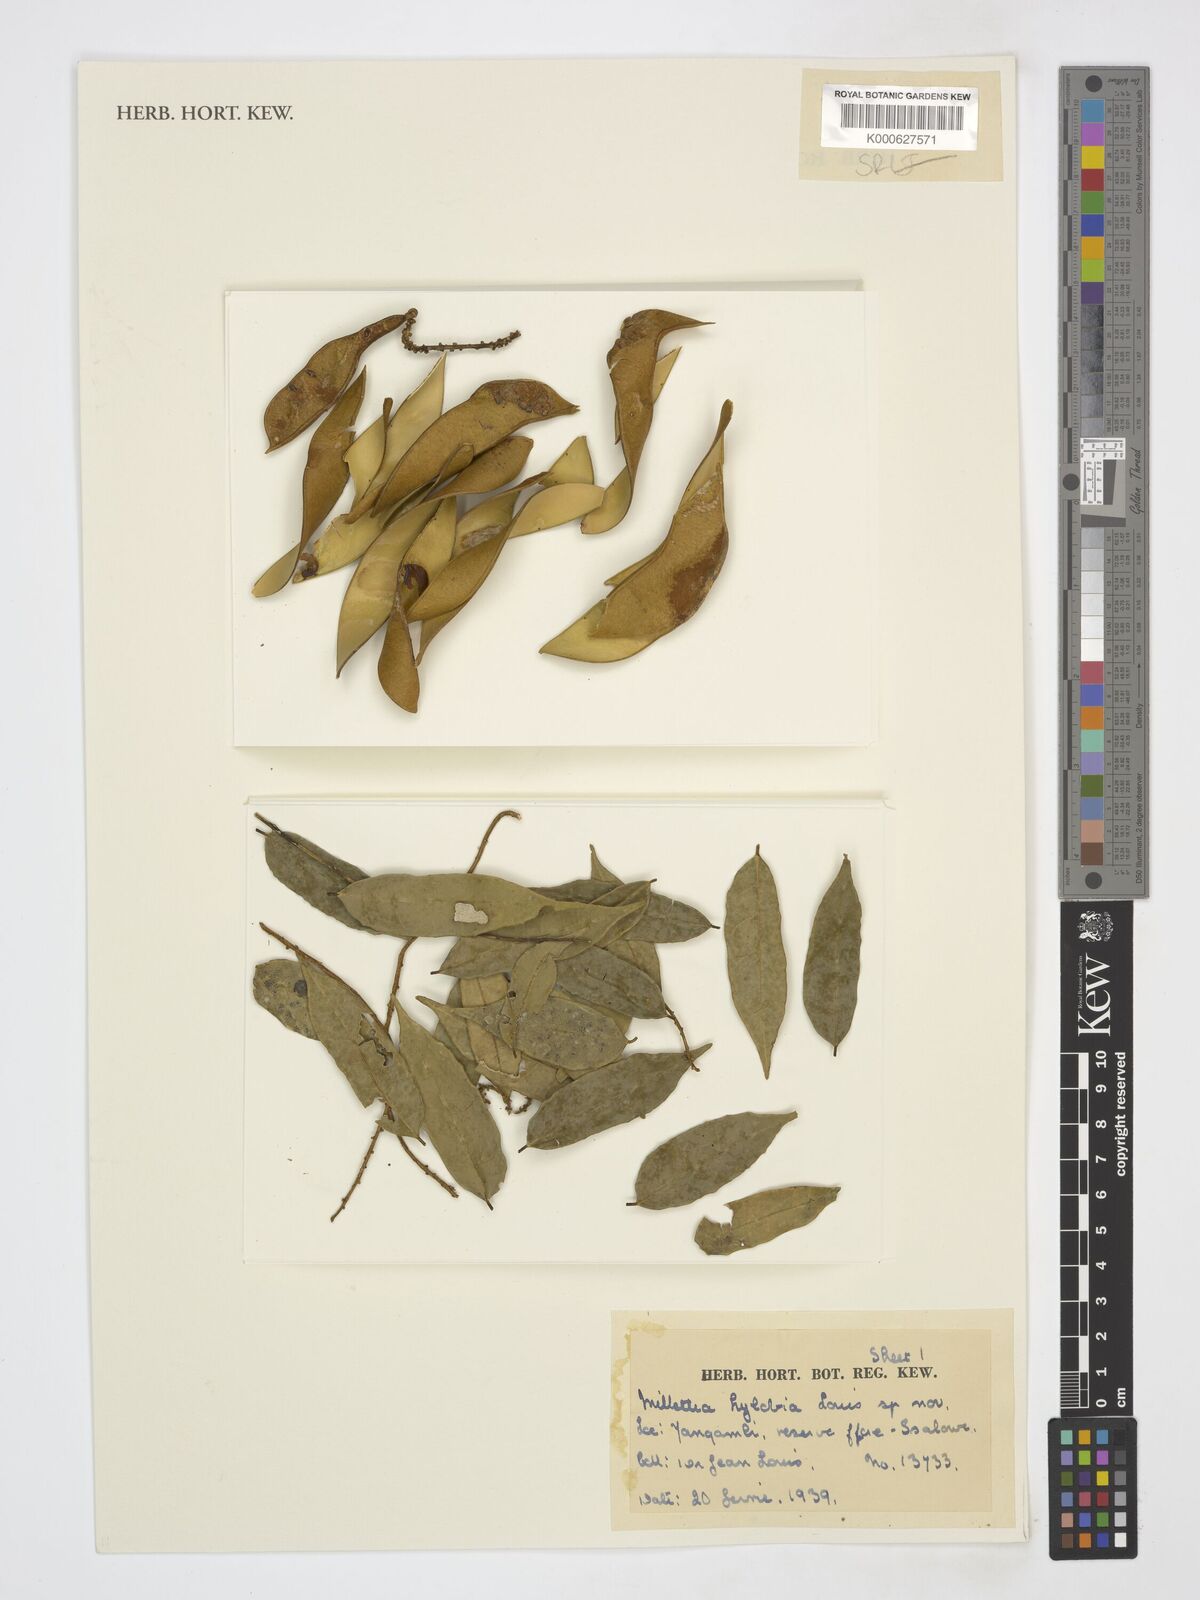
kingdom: Plantae
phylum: Tracheophyta
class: Magnoliopsida
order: Fabales
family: Fabaceae
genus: Millettia
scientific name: Millettia hylobia
